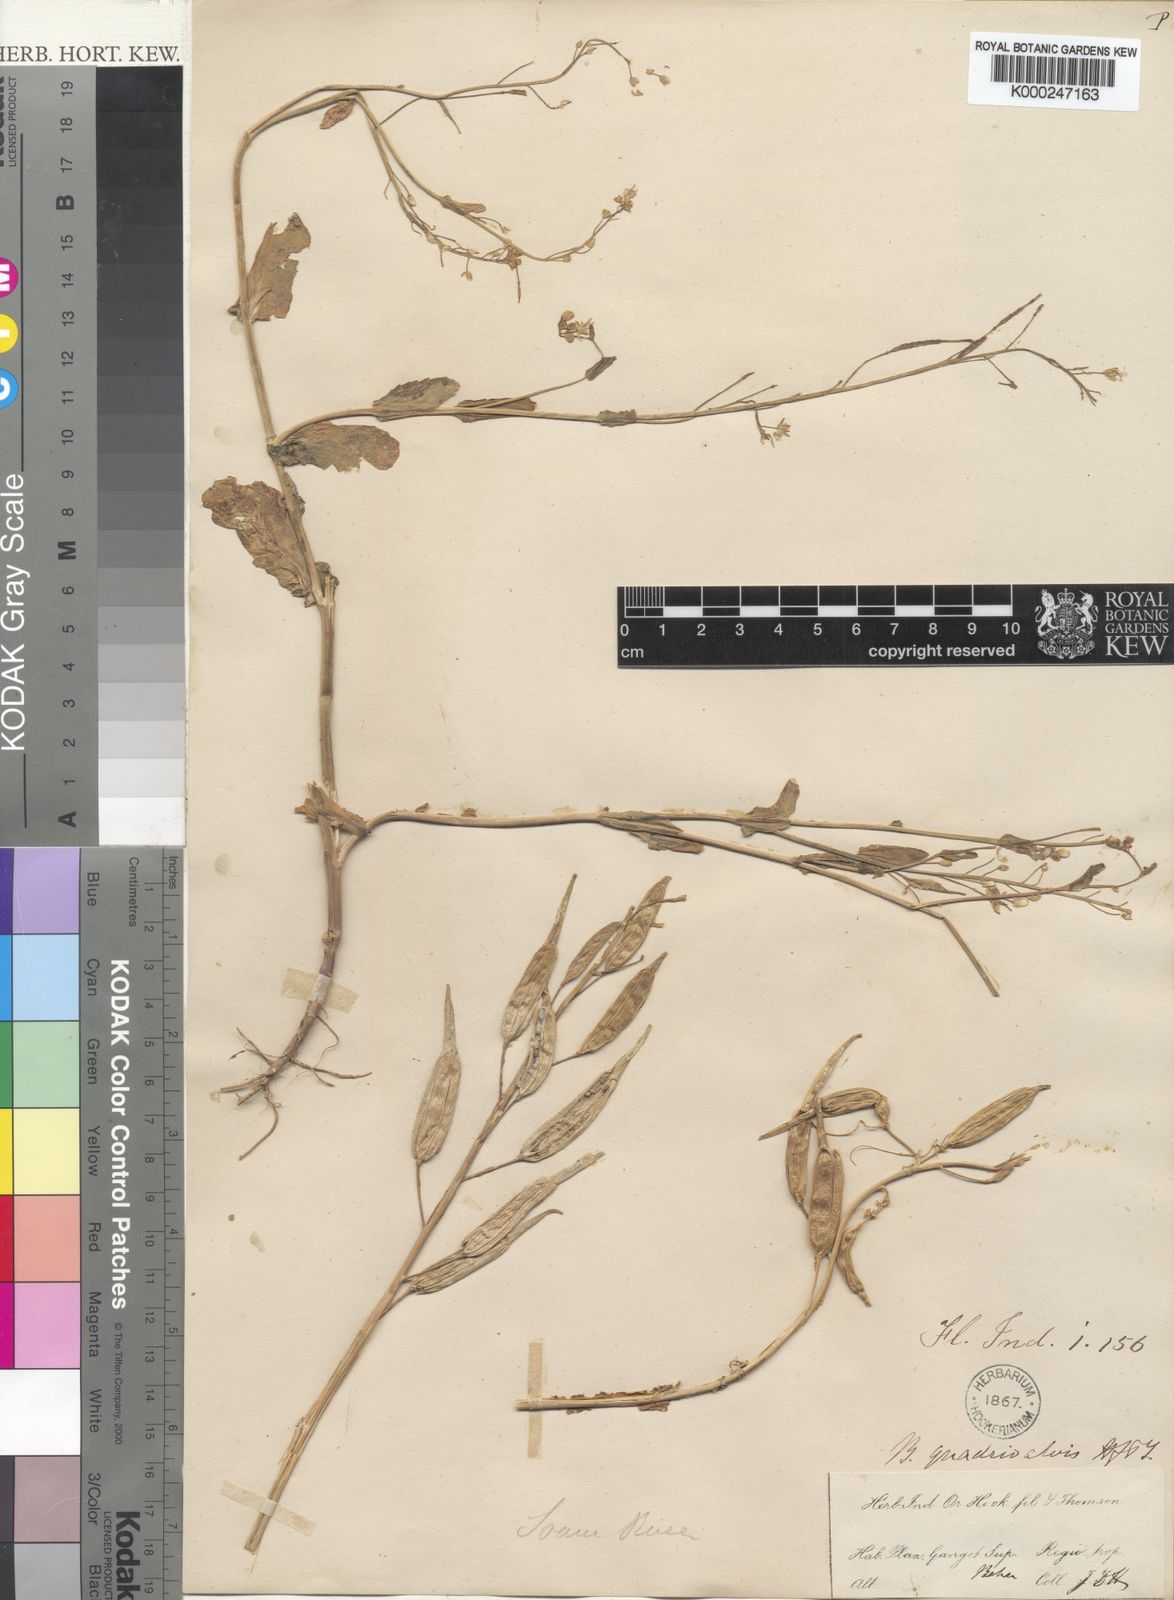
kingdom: Plantae
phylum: Tracheophyta
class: Magnoliopsida
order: Brassicales
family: Brassicaceae
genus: Brassica
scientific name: Brassica napus
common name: Rape
